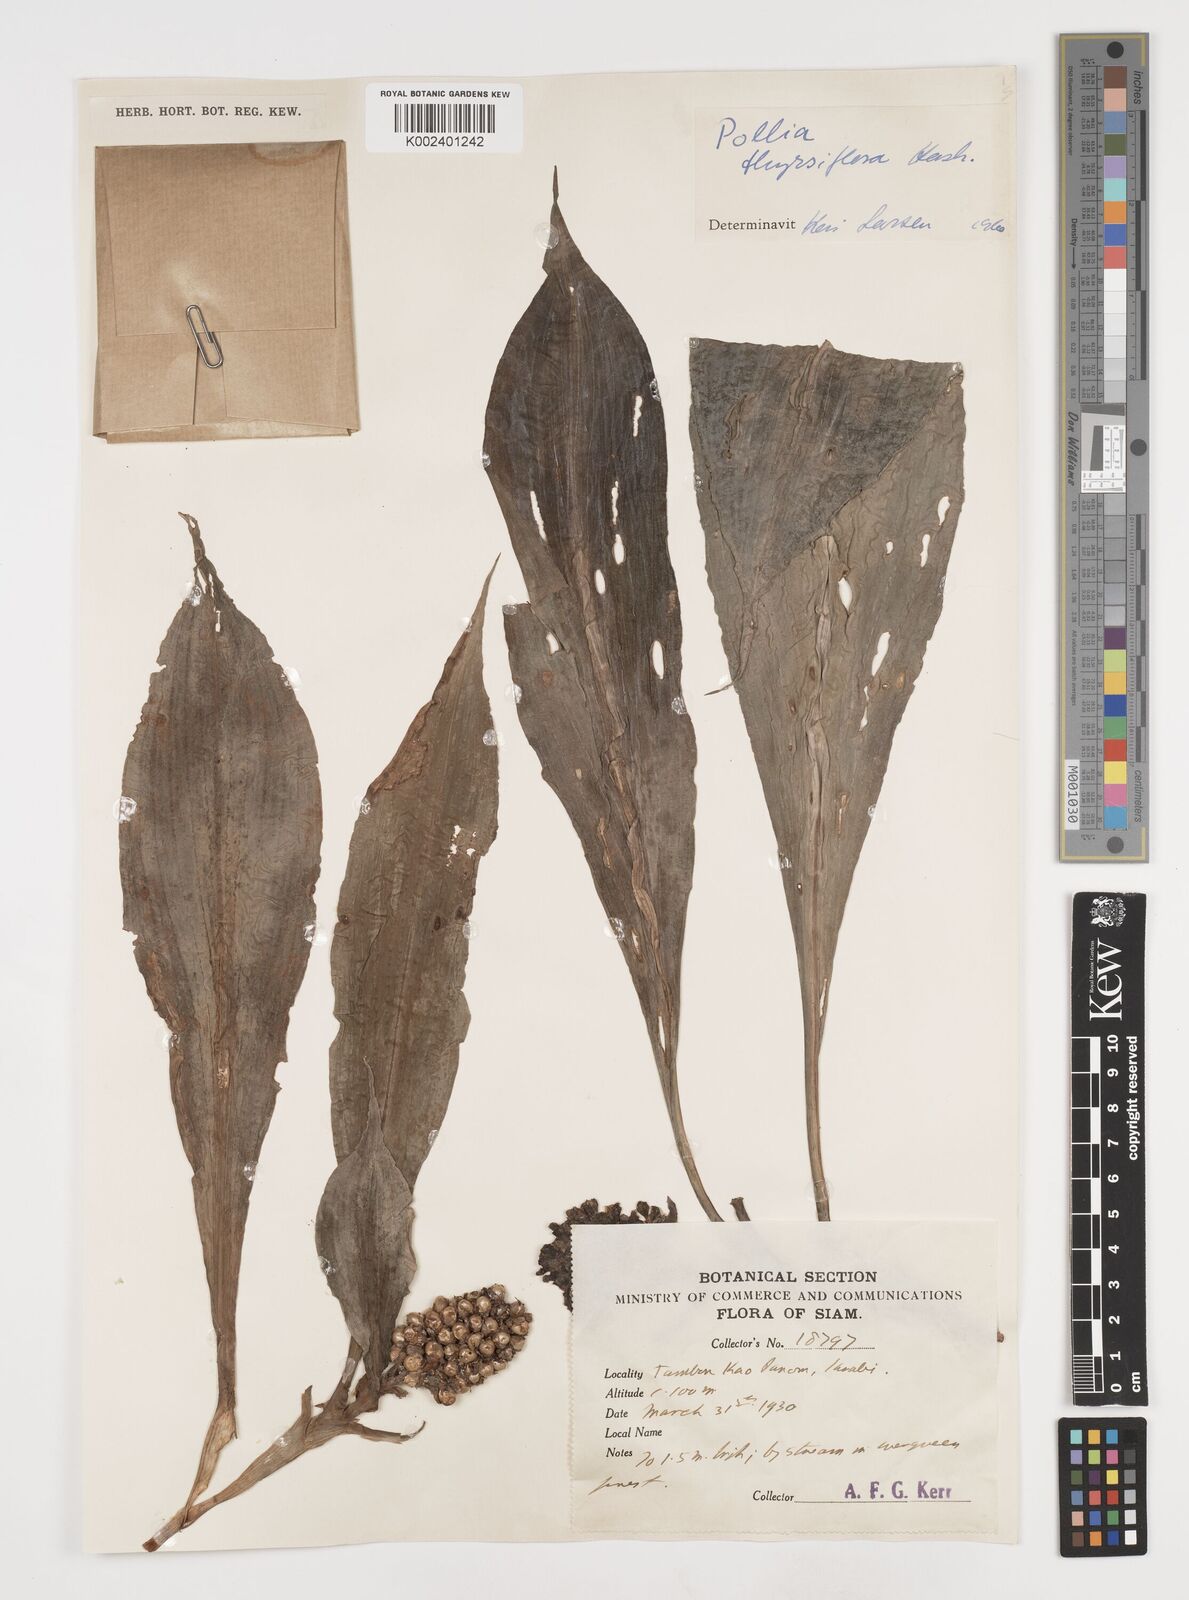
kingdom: Plantae
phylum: Tracheophyta
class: Liliopsida
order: Commelinales
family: Commelinaceae
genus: Pollia
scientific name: Pollia thyrsiflora
